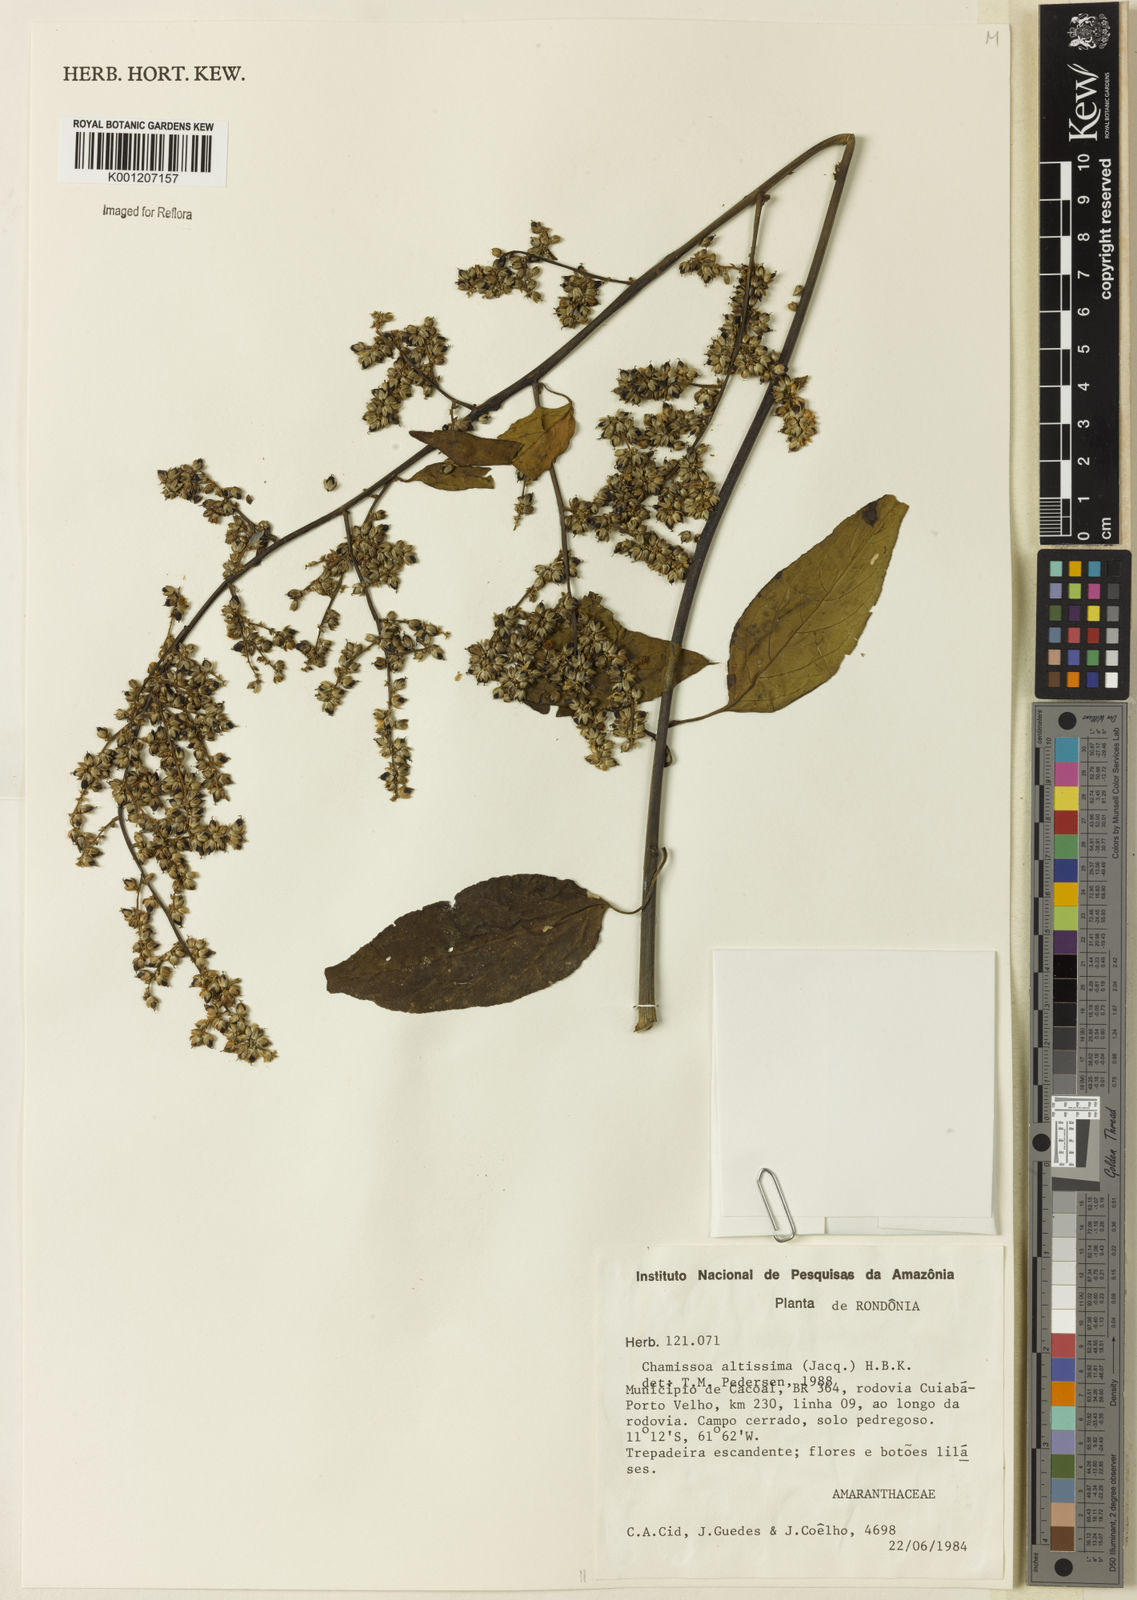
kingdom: Plantae
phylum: Tracheophyta
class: Magnoliopsida
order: Caryophyllales
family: Amaranthaceae
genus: Chamissoa
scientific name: Chamissoa altissima
